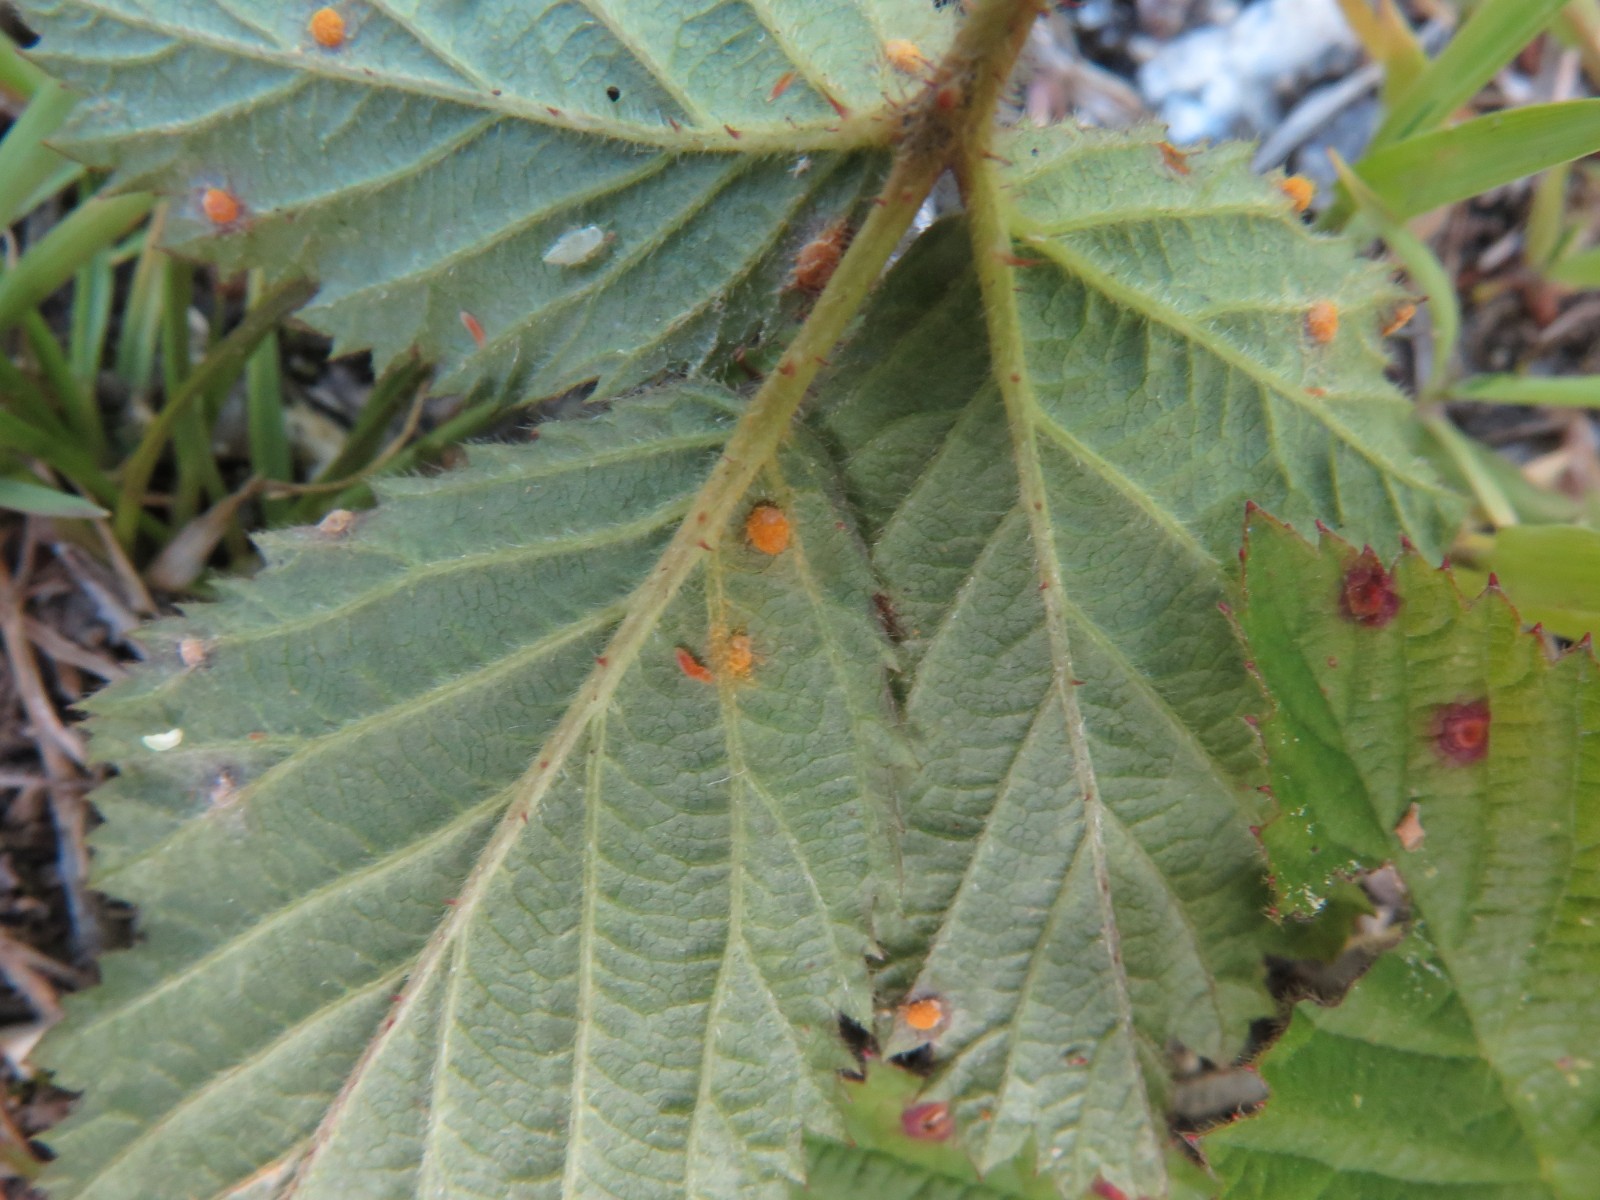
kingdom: Fungi
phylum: Basidiomycota
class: Pucciniomycetes
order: Pucciniales
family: Phragmidiaceae
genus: Phragmidium
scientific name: Phragmidium violaceum
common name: violet flercellerust
